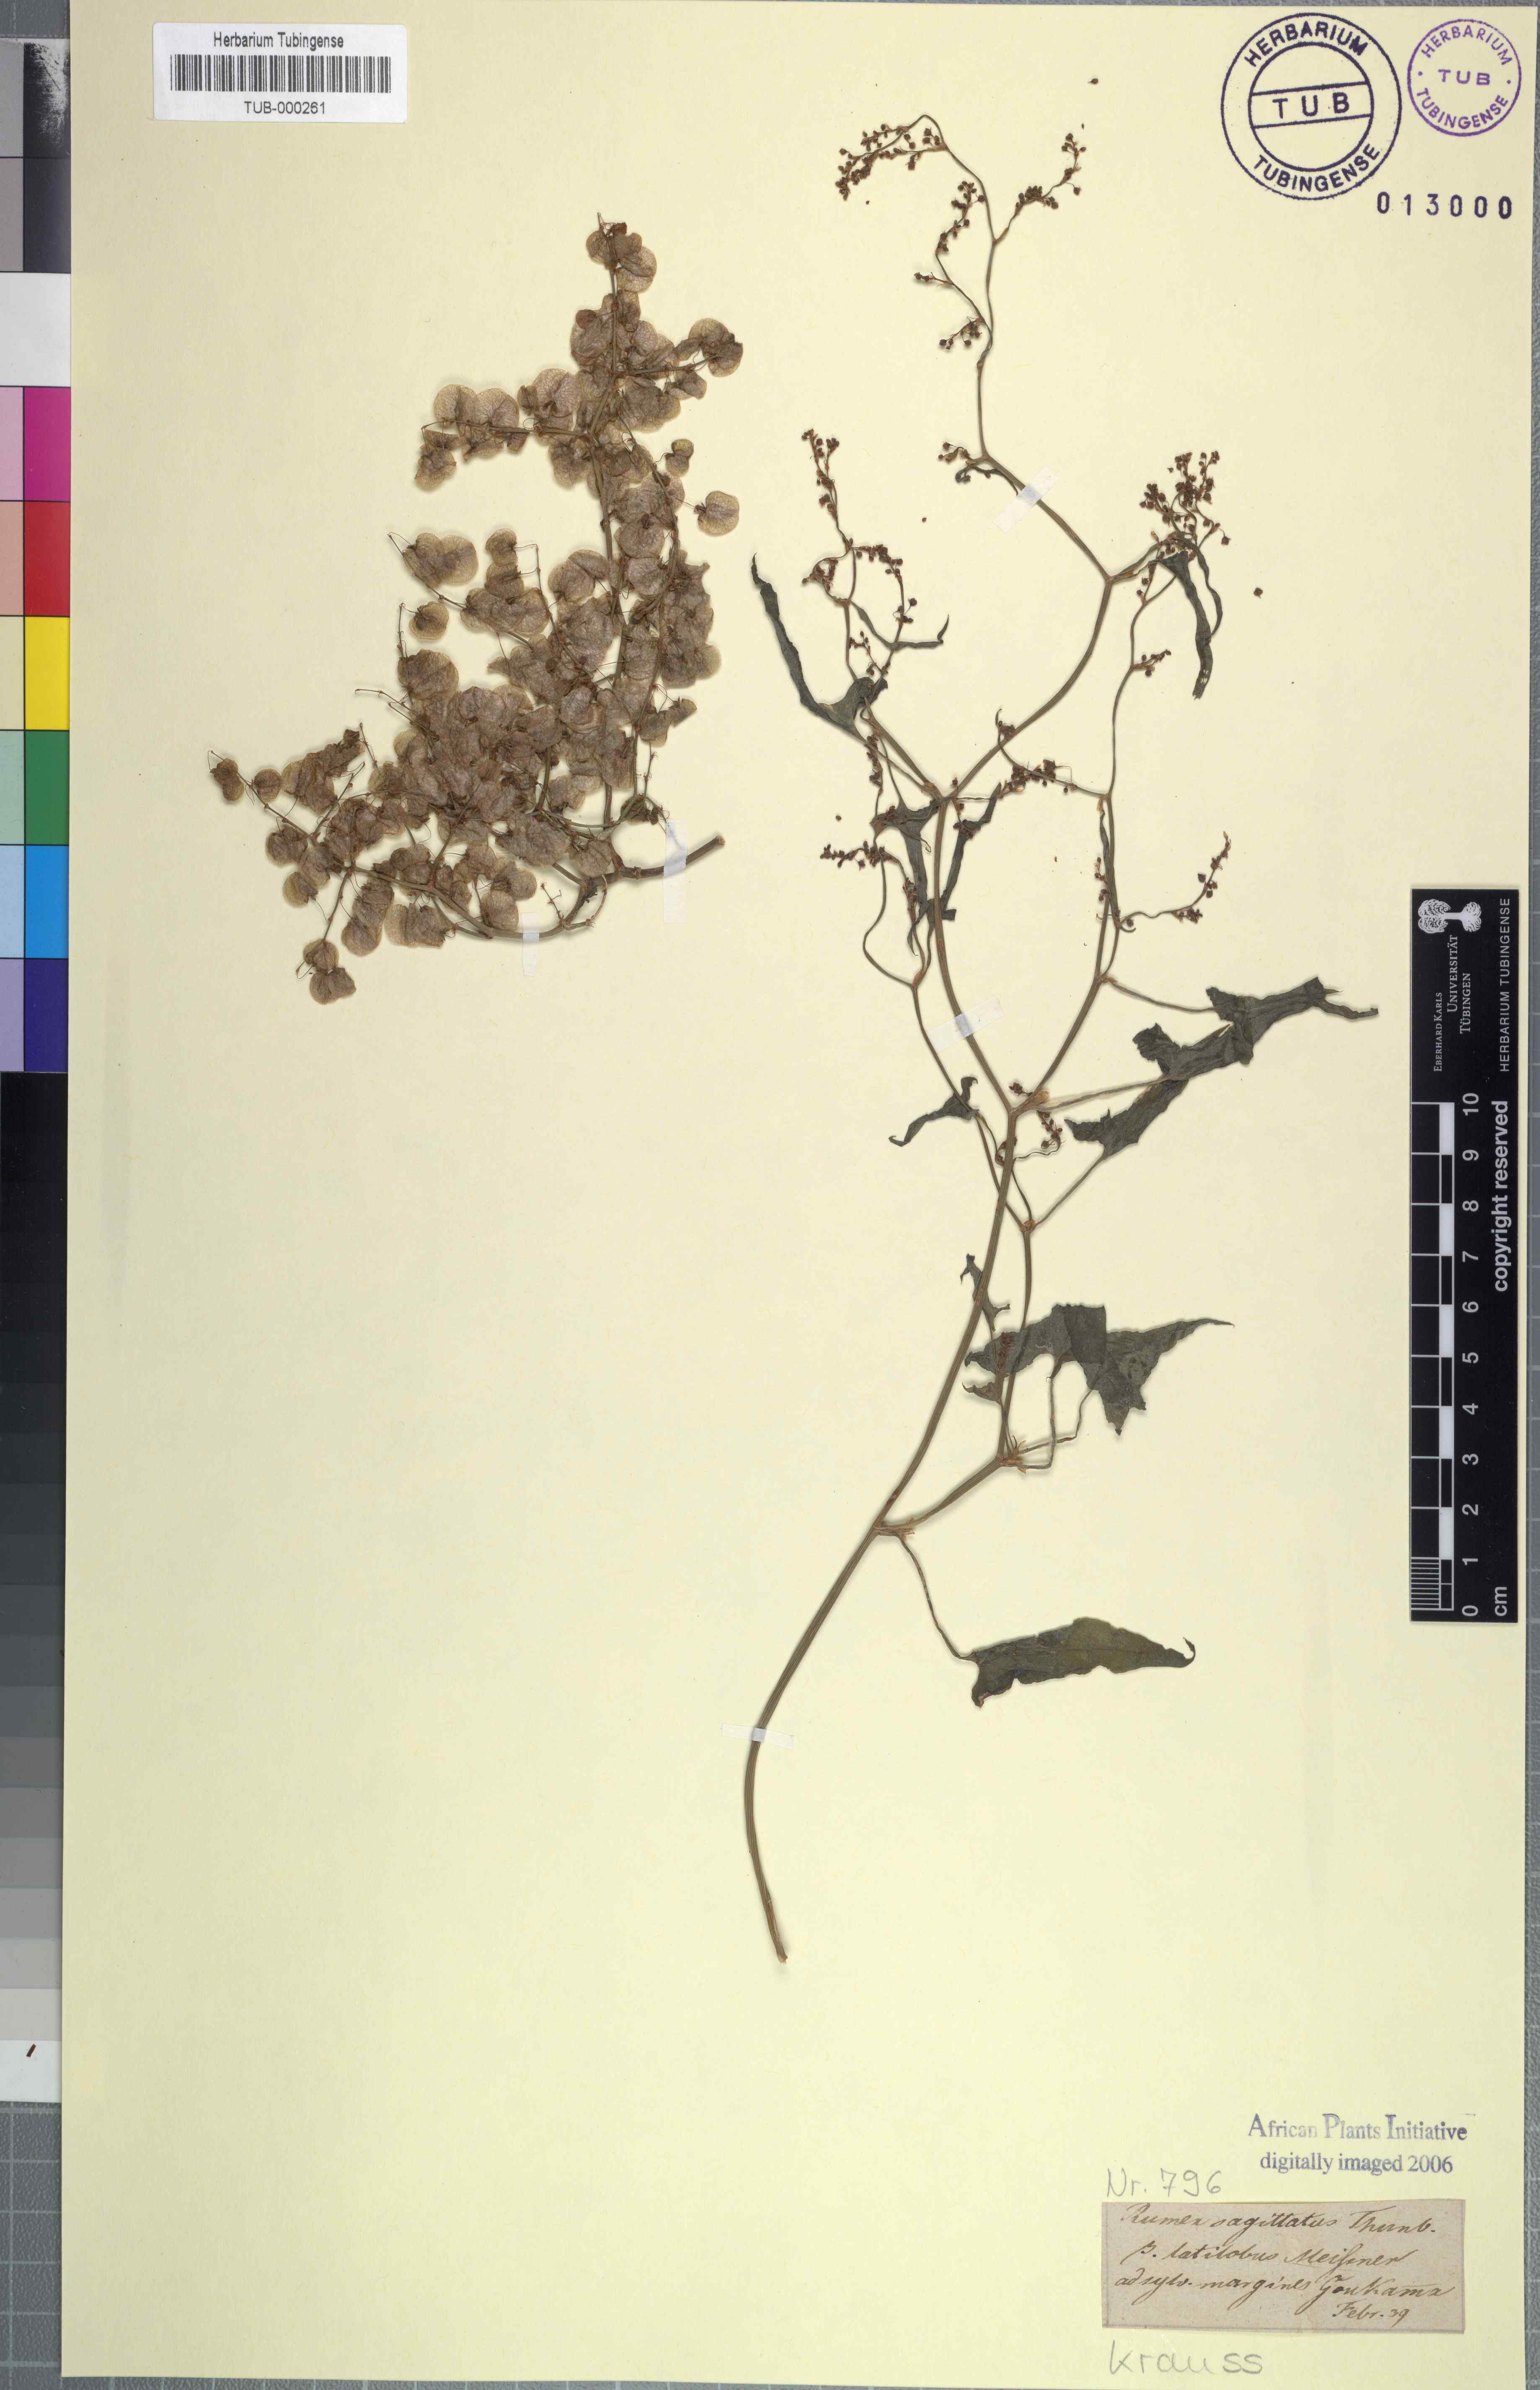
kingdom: Plantae
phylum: Tracheophyta
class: Magnoliopsida
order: Caryophyllales
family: Polygonaceae
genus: Rumex
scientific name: Rumex sagittatus
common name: Climbing dock
